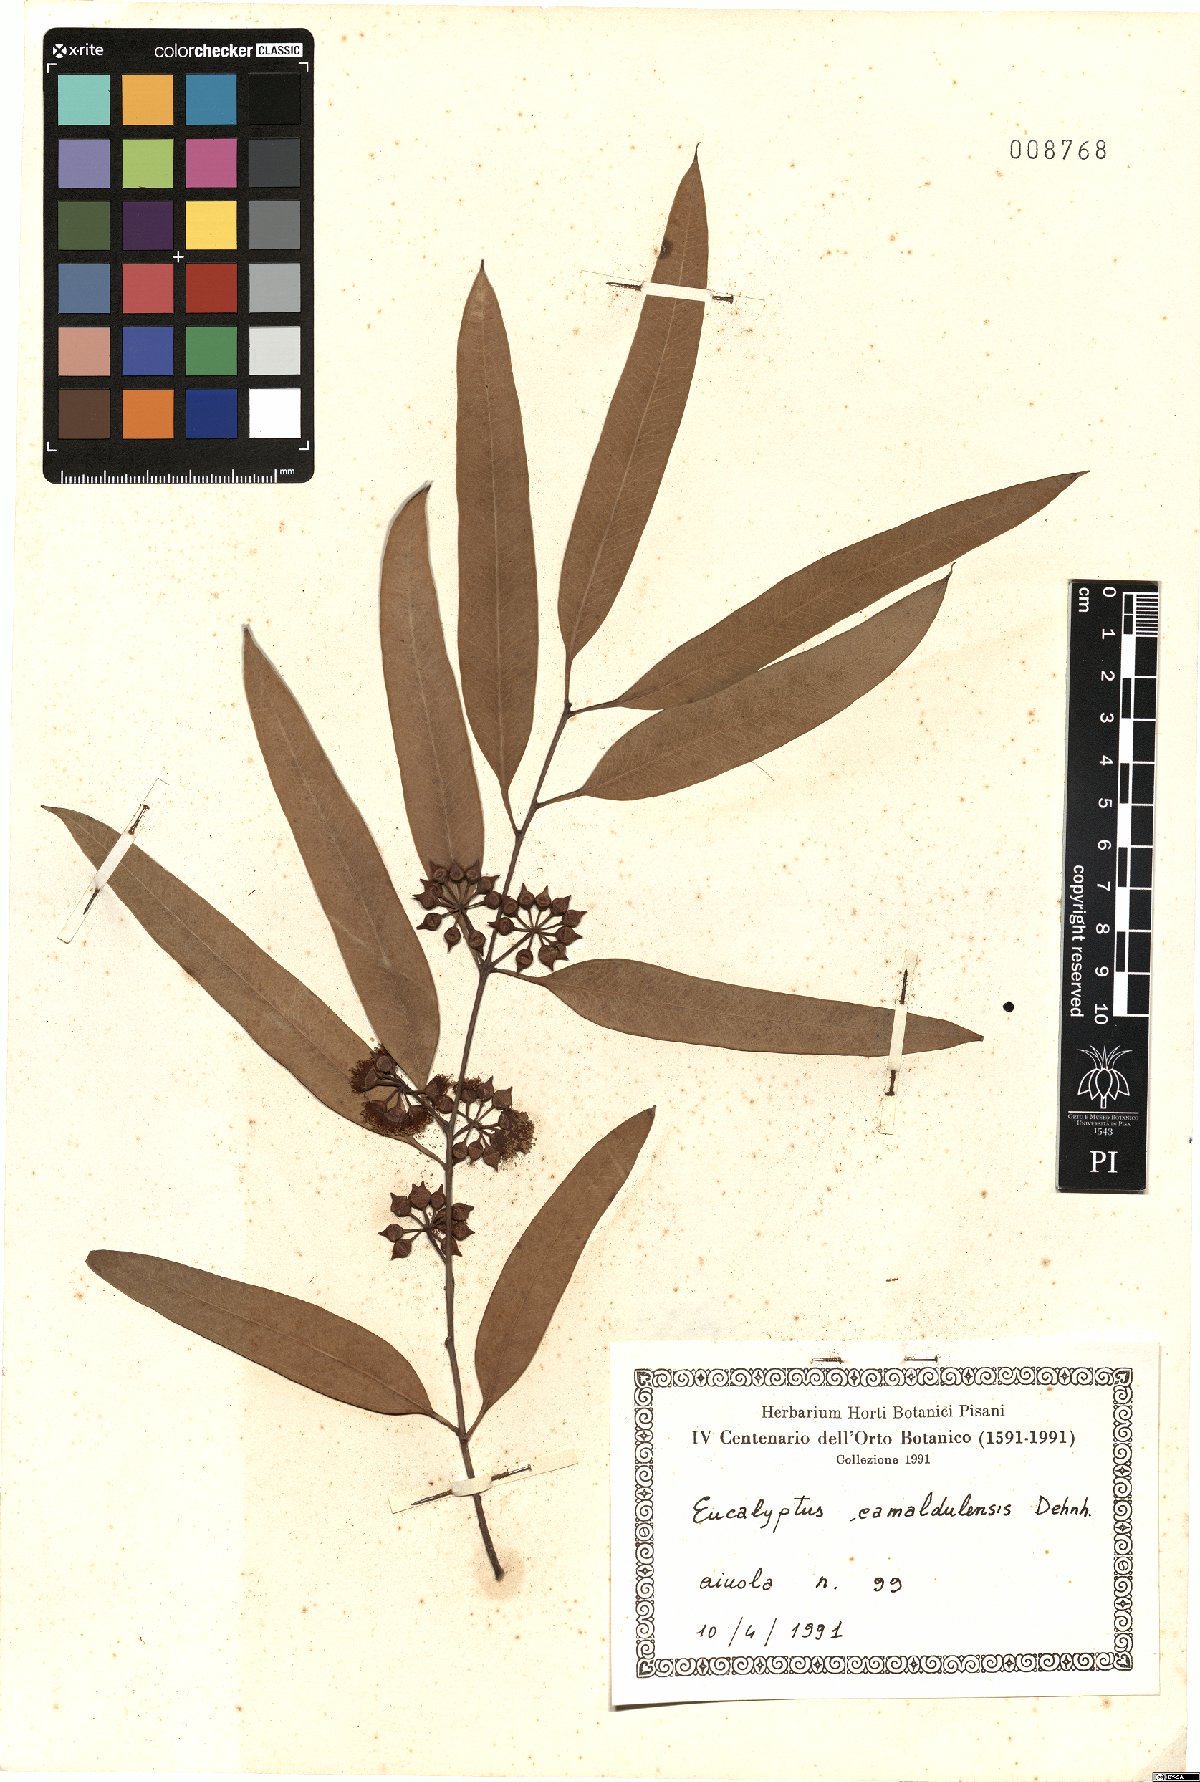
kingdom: Plantae
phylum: Tracheophyta
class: Magnoliopsida
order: Myrtales
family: Myrtaceae
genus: Eucalyptus
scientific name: Eucalyptus camaldulensis
